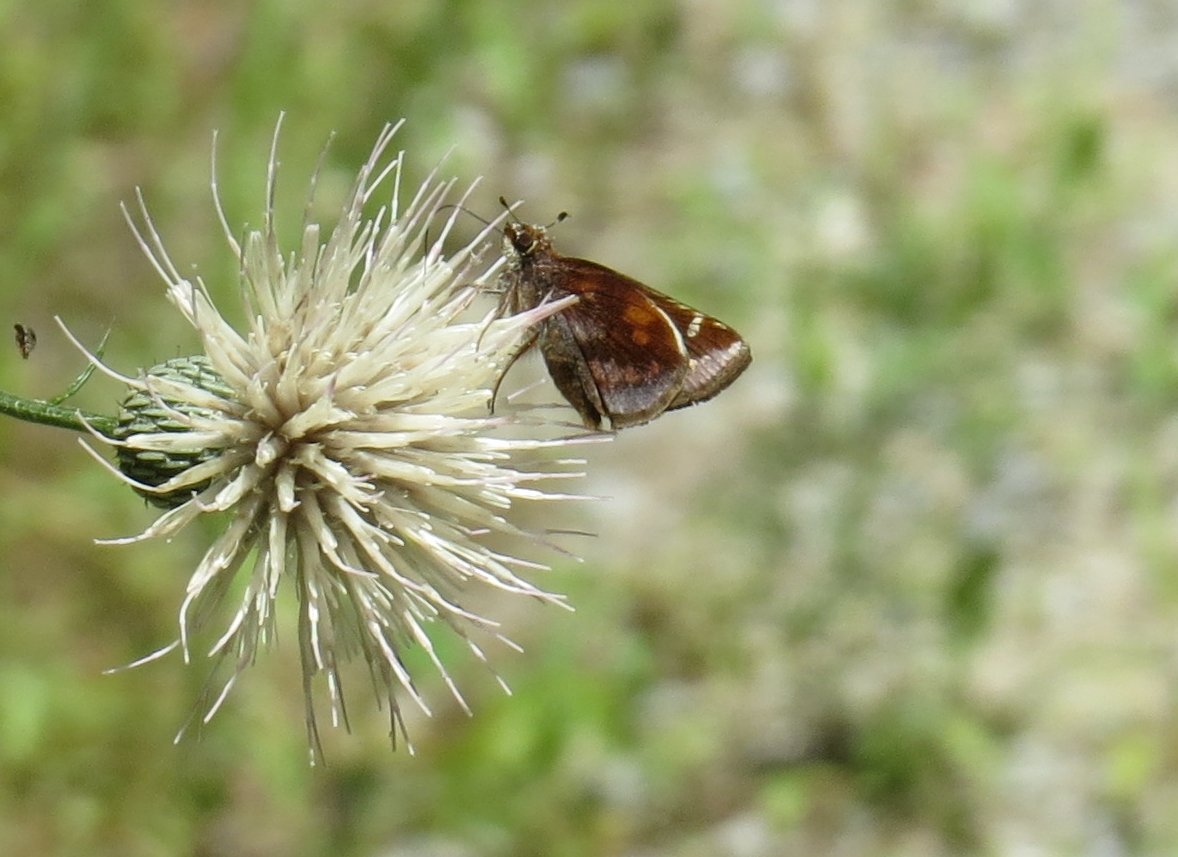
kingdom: Animalia
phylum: Arthropoda
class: Insecta
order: Lepidoptera
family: Hesperiidae
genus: Lon
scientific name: Lon zabulon
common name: Zabulon Skipper
